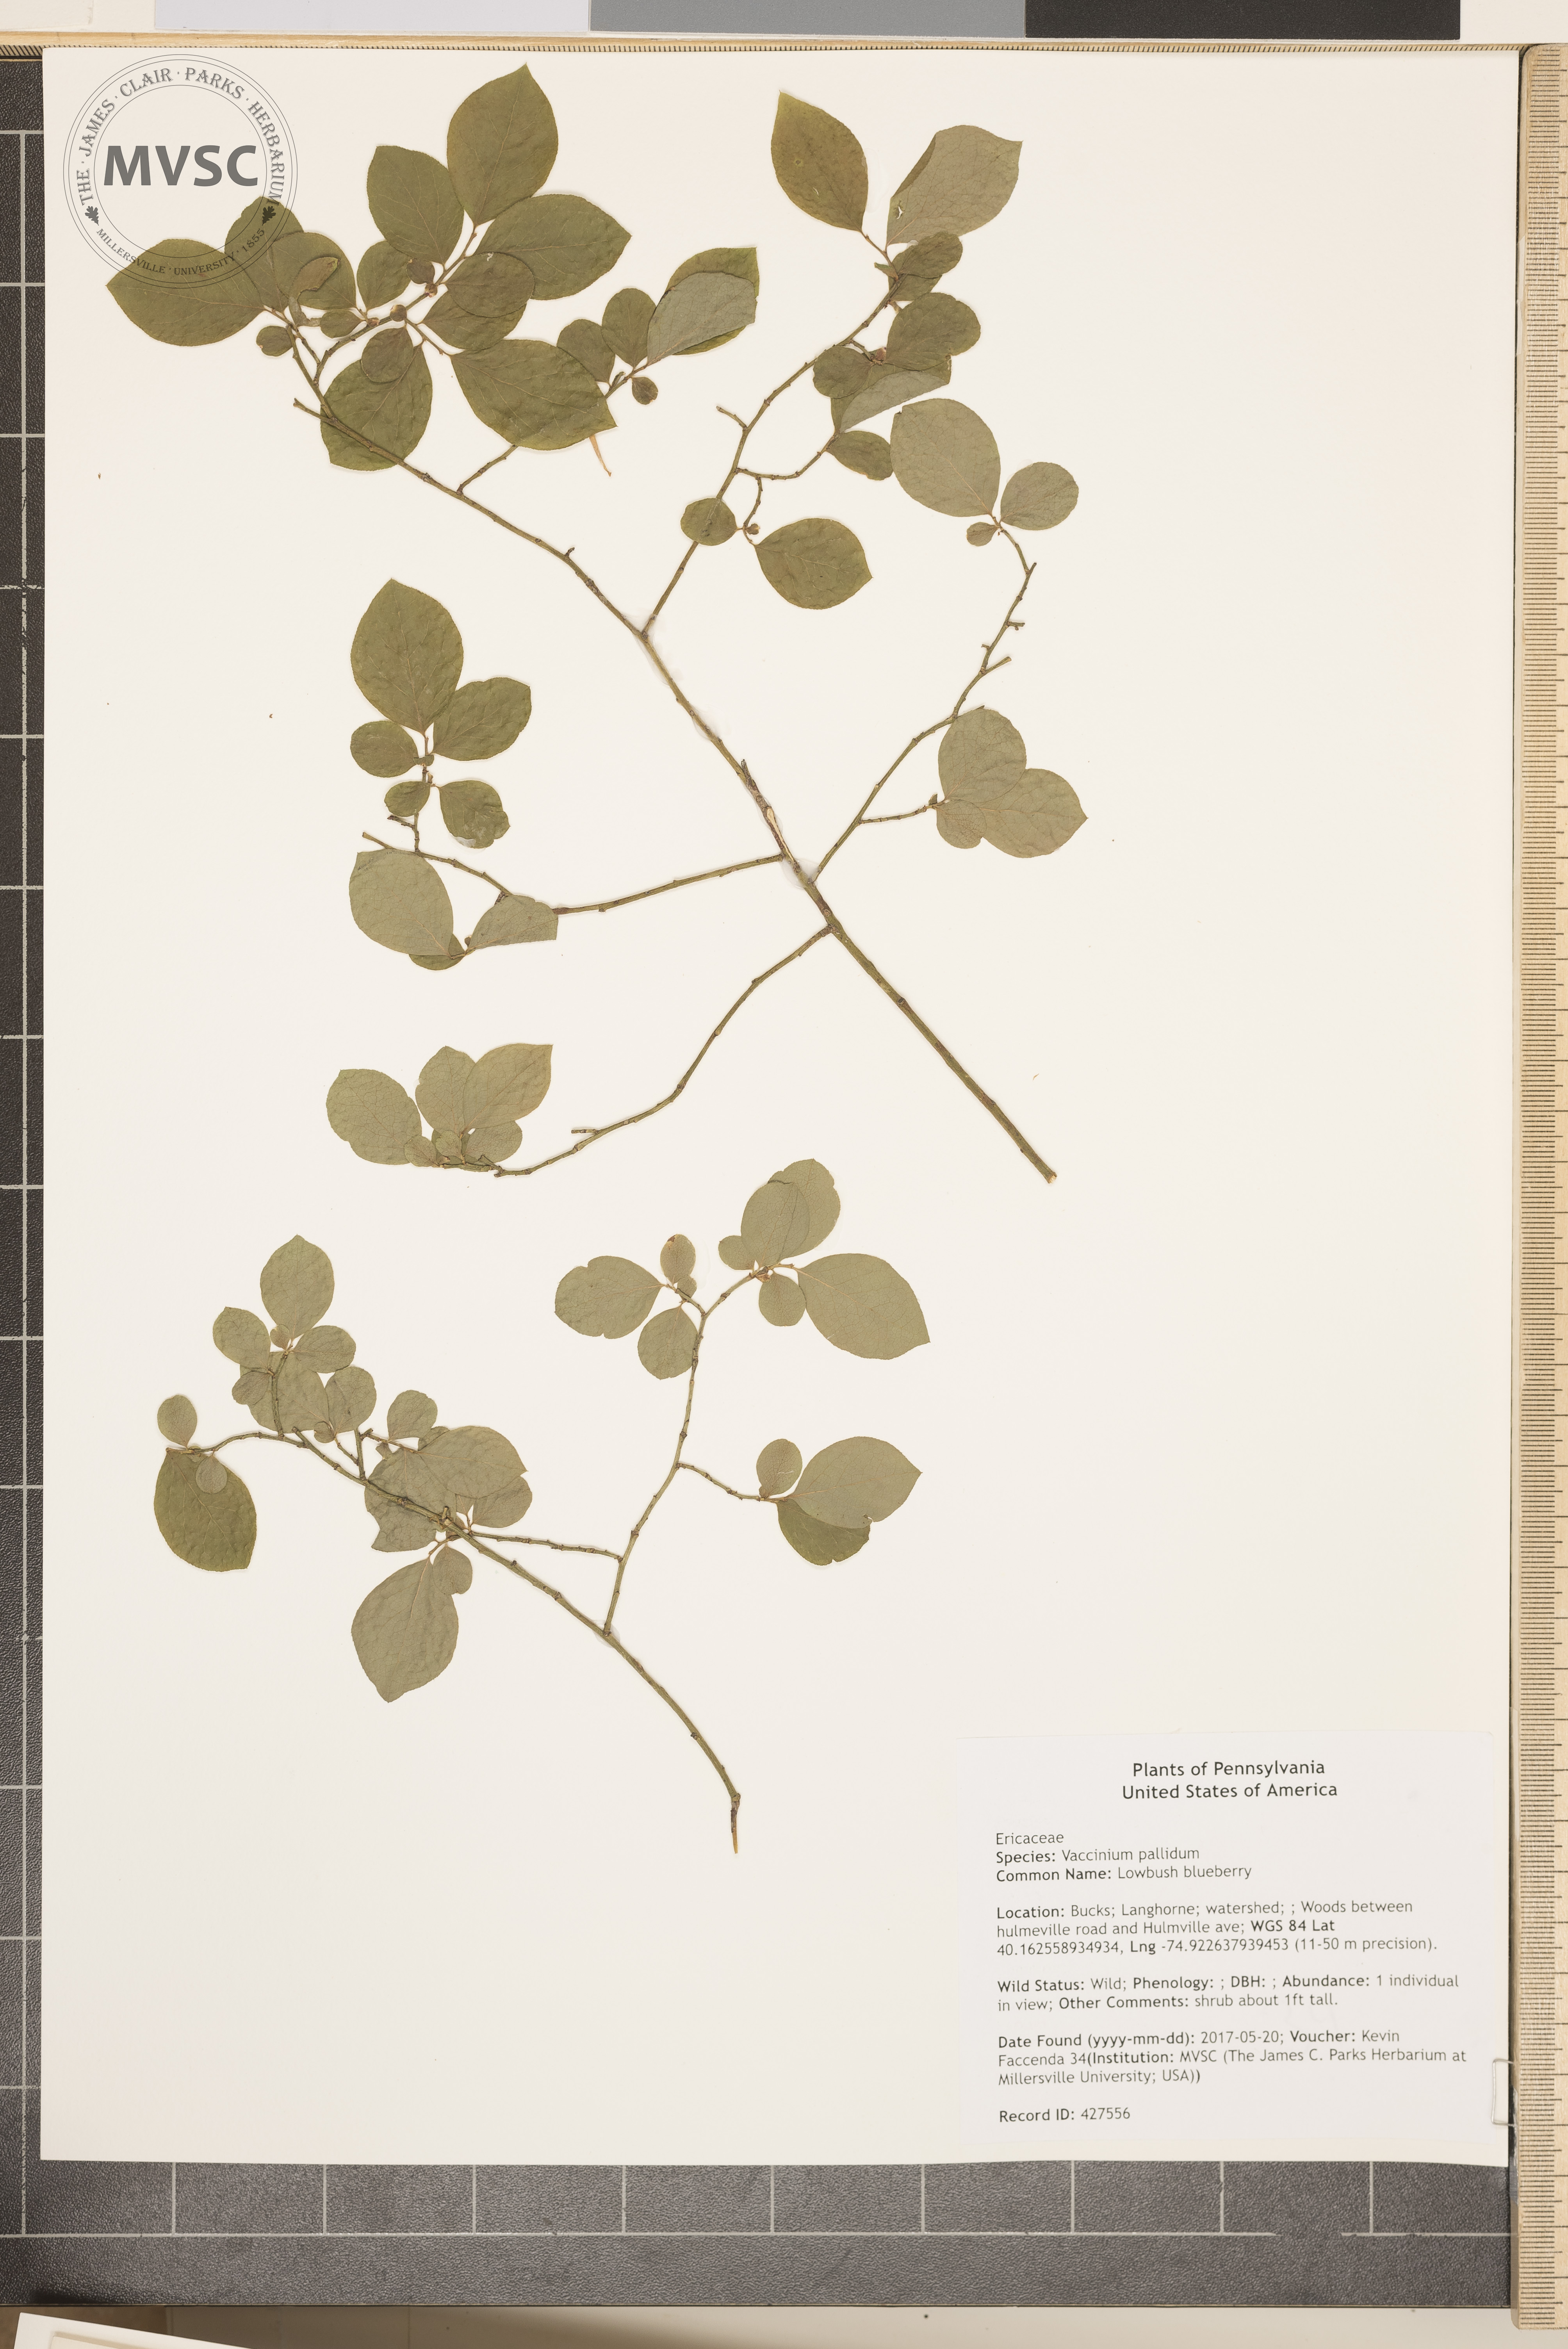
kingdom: Plantae
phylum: Tracheophyta
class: Magnoliopsida
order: Ericales
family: Ericaceae
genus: Vaccinium
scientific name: Vaccinium pallidum
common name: Lowbush blueberry
